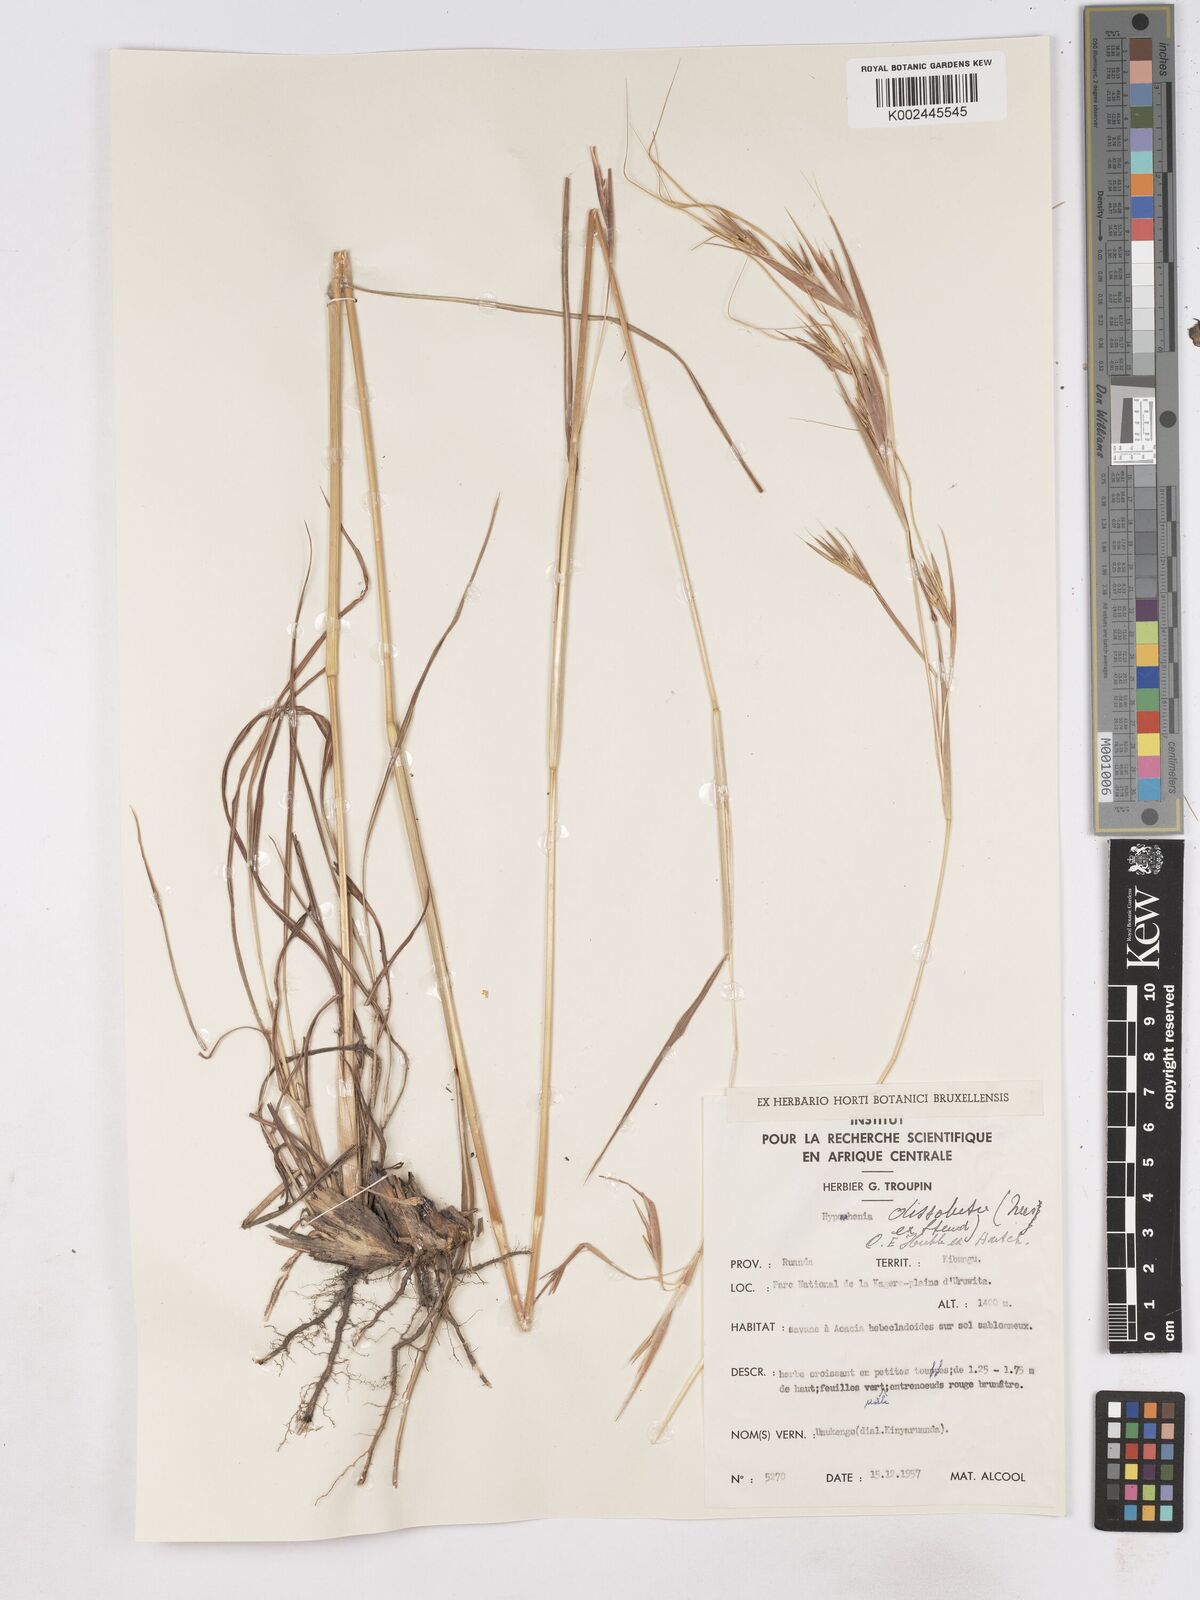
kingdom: Plantae
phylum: Tracheophyta
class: Liliopsida
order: Poales
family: Poaceae
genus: Hyperthelia
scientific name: Hyperthelia dissoluta
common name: Yellow thatching grass
